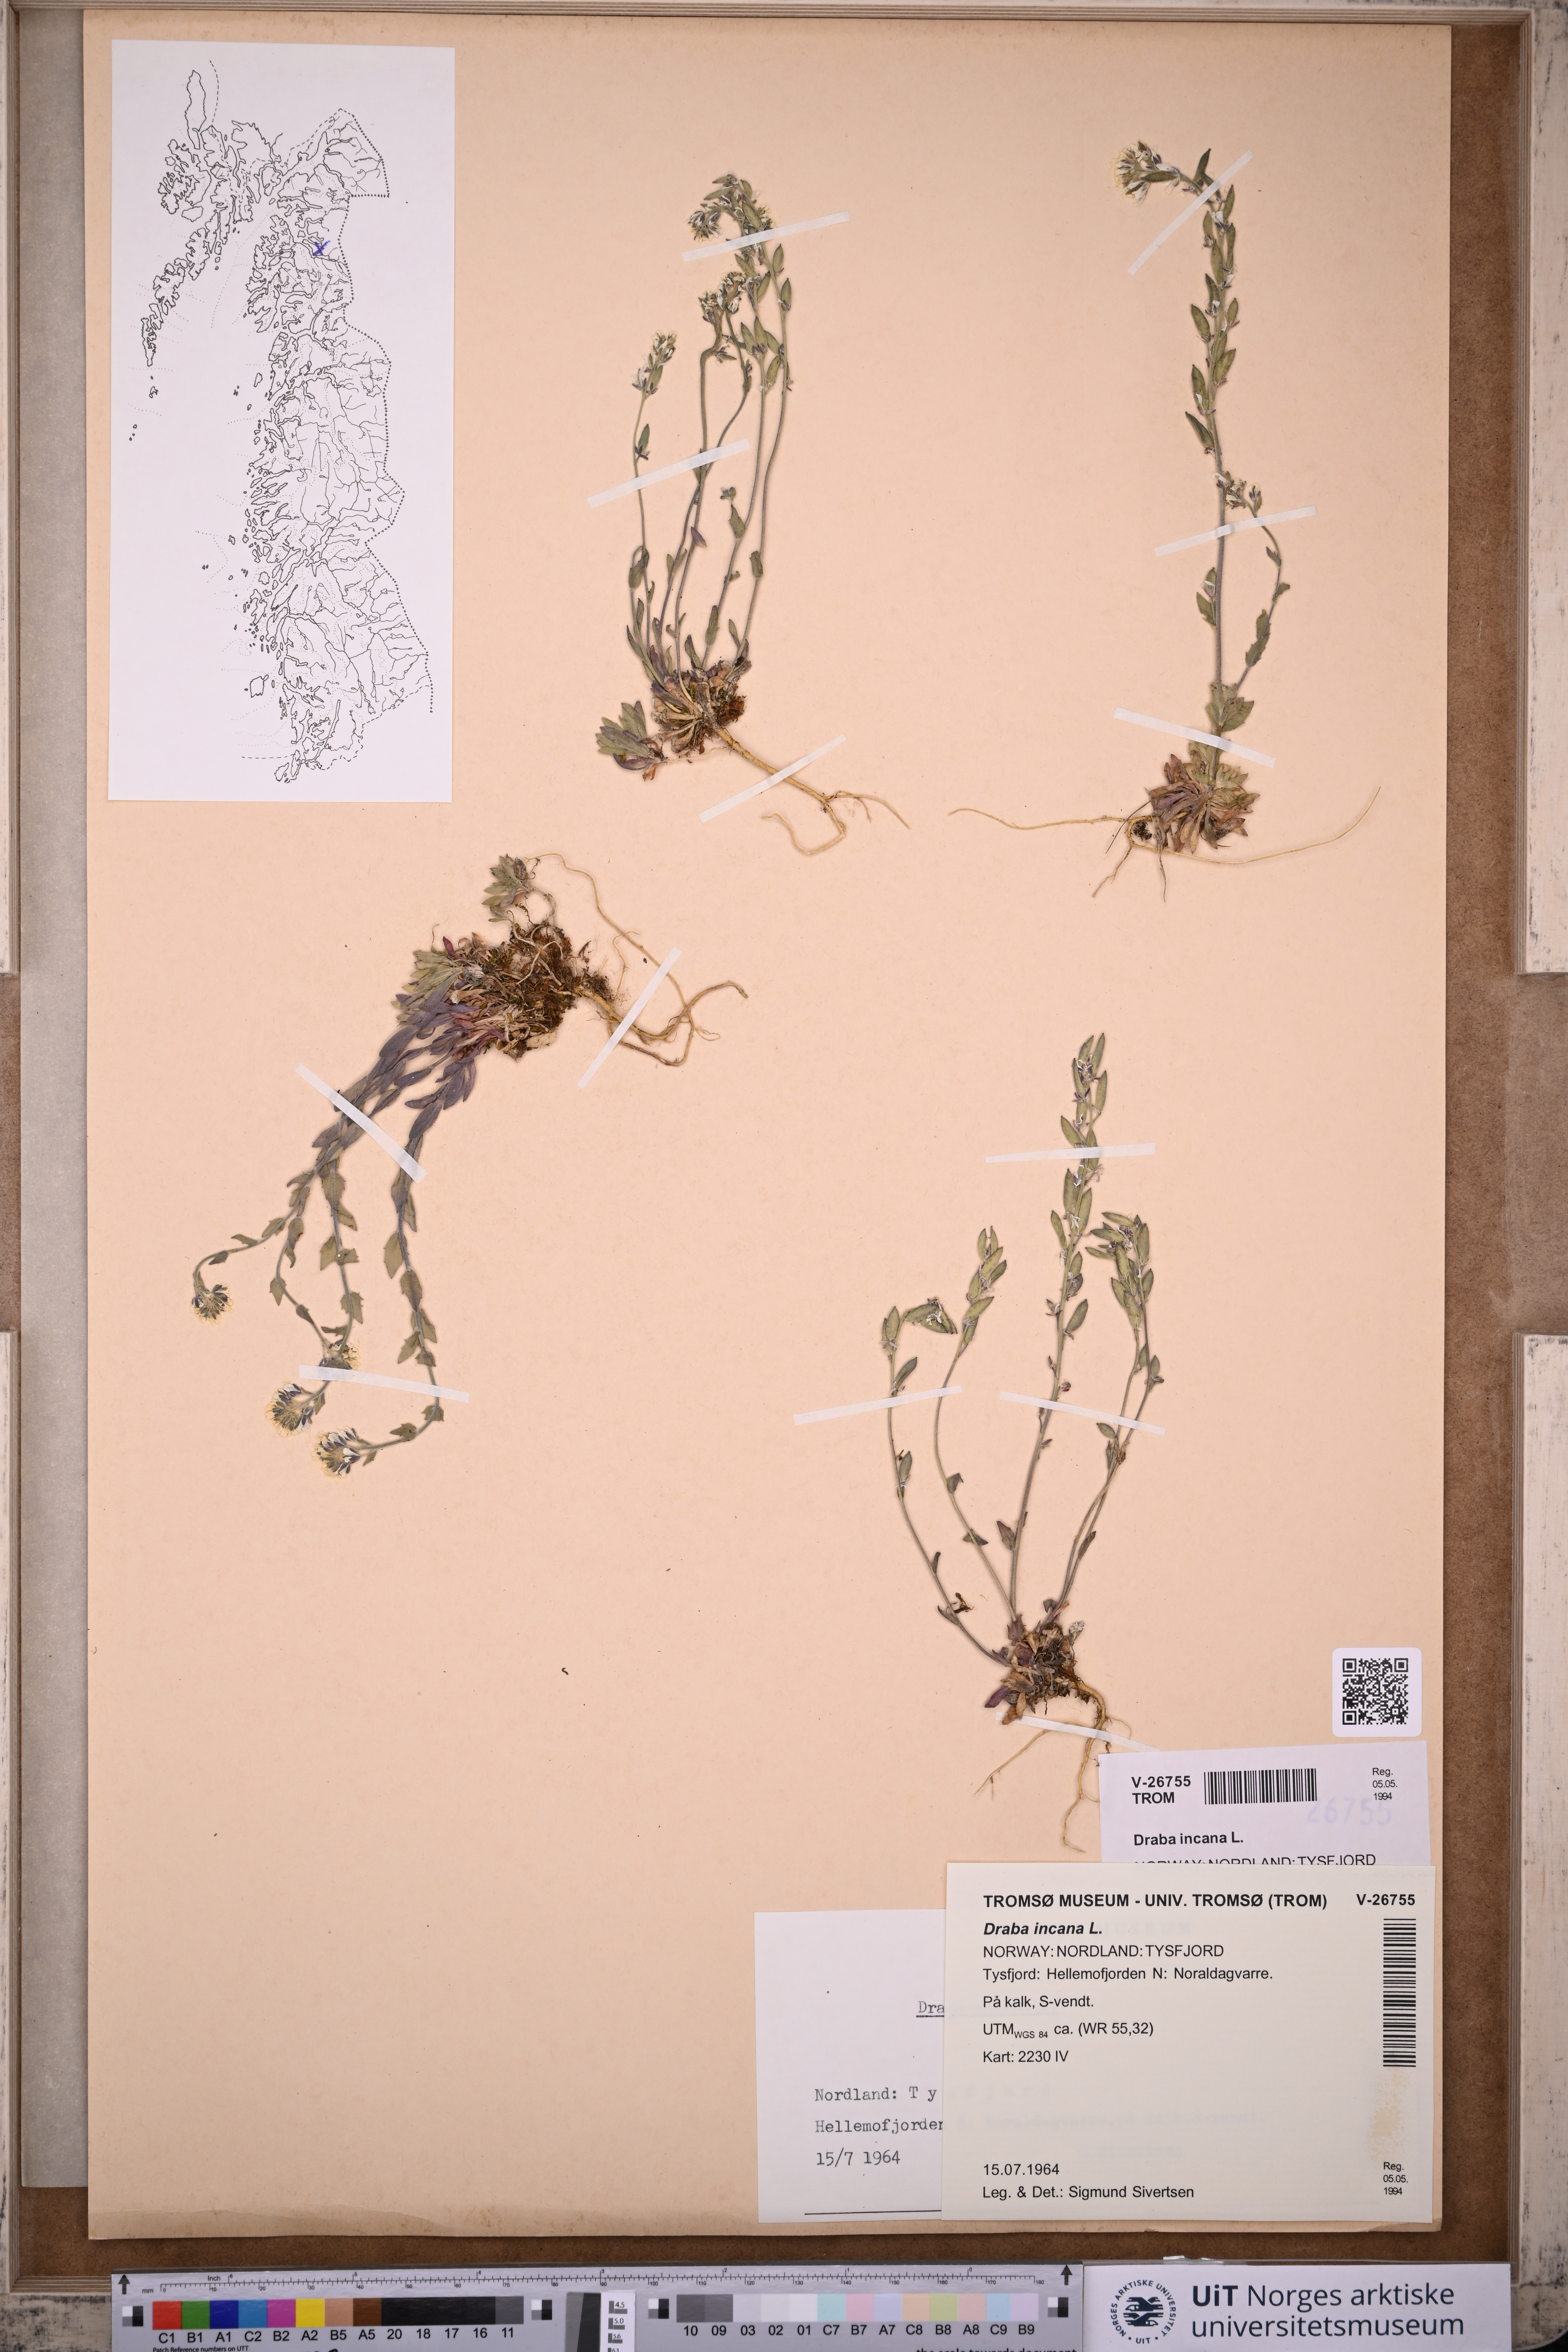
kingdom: Plantae
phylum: Tracheophyta
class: Magnoliopsida
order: Brassicales
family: Brassicaceae
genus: Draba
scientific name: Draba incana
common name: Hoary whitlow-grass
